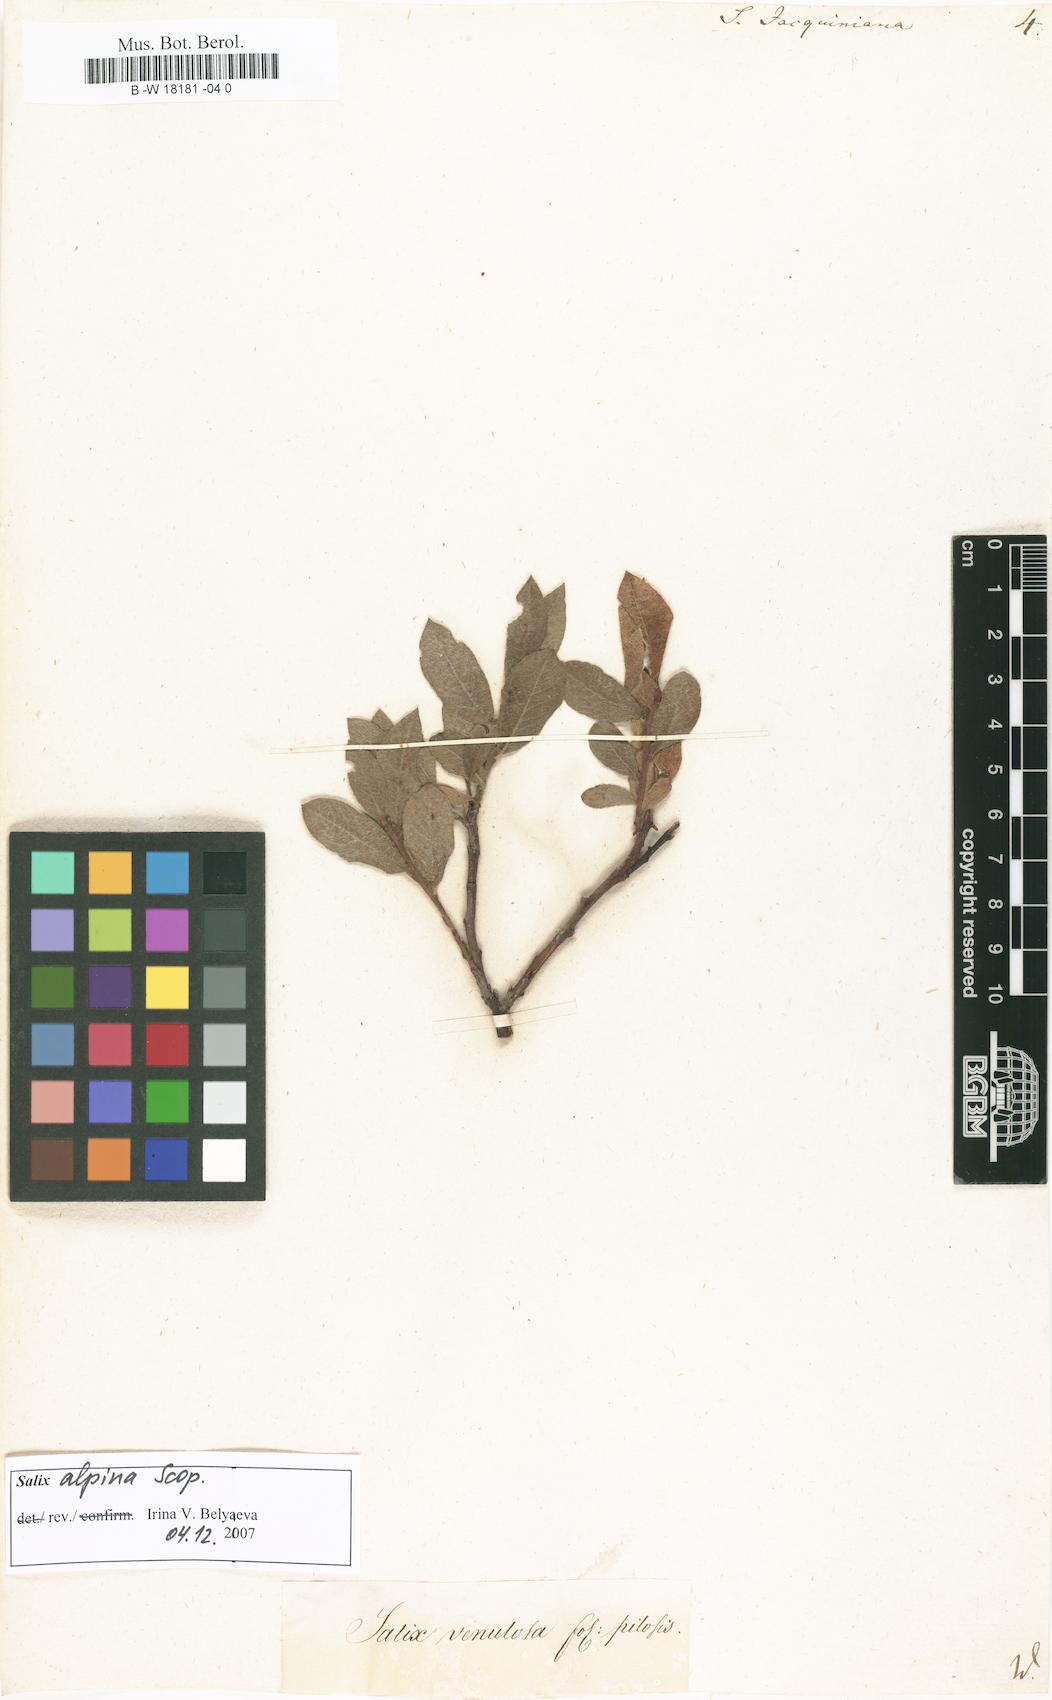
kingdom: Plantae
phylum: Tracheophyta
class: Magnoliopsida
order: Malpighiales
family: Salicaceae
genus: Salix
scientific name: Salix alpina
